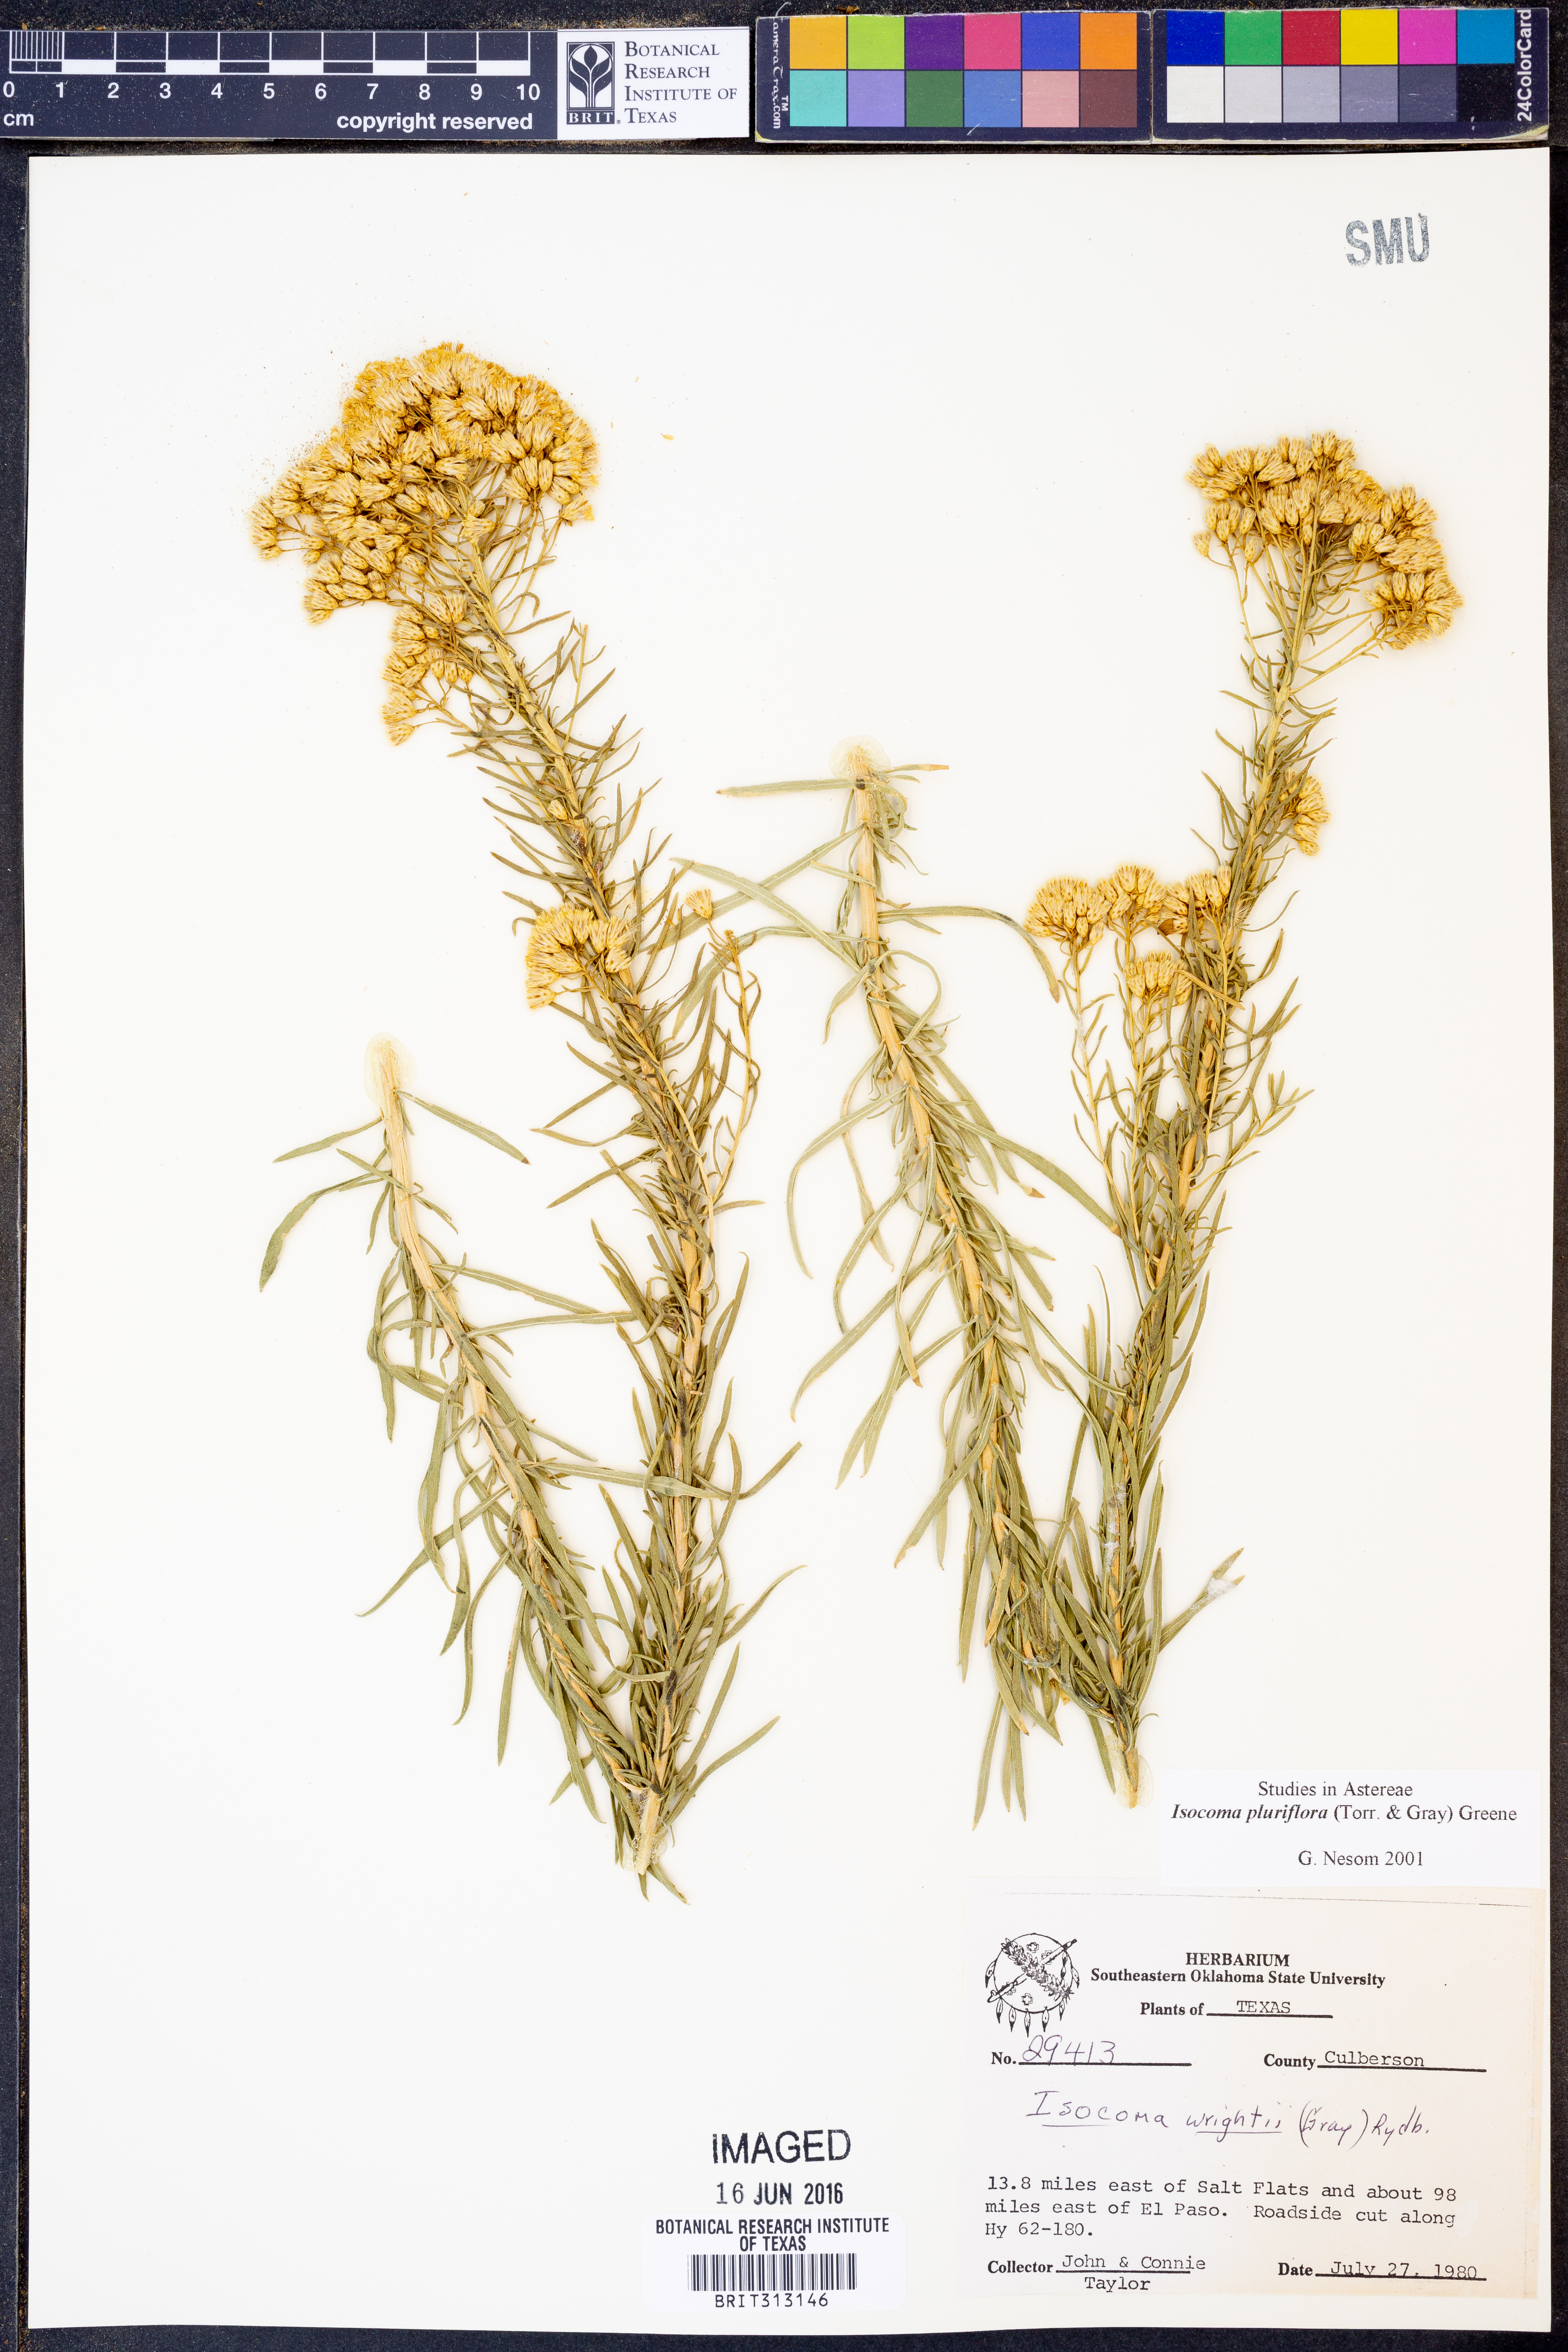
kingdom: Plantae
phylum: Tracheophyta
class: Magnoliopsida
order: Asterales
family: Asteraceae
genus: Isocoma
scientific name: Isocoma pluriflora
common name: Southern jimmyweed
